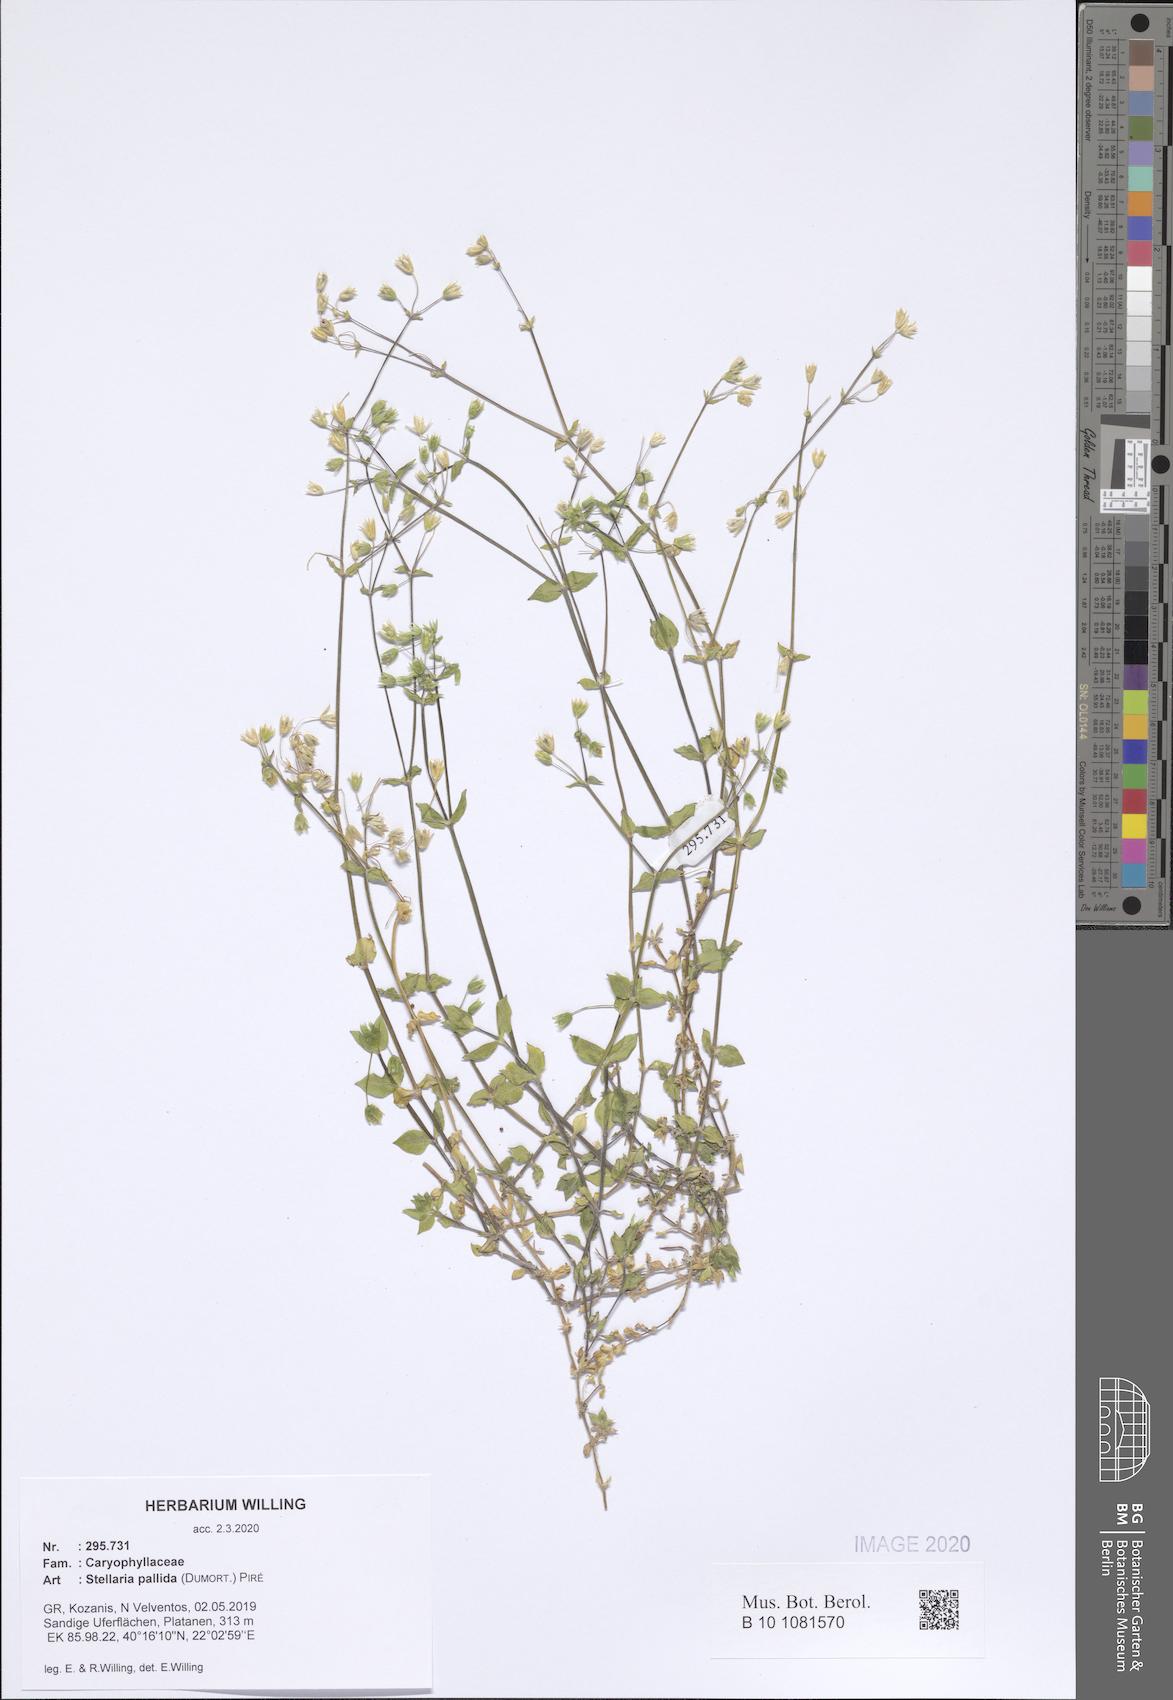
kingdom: Plantae
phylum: Tracheophyta
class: Magnoliopsida
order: Caryophyllales
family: Caryophyllaceae
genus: Stellaria
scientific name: Stellaria apetala
